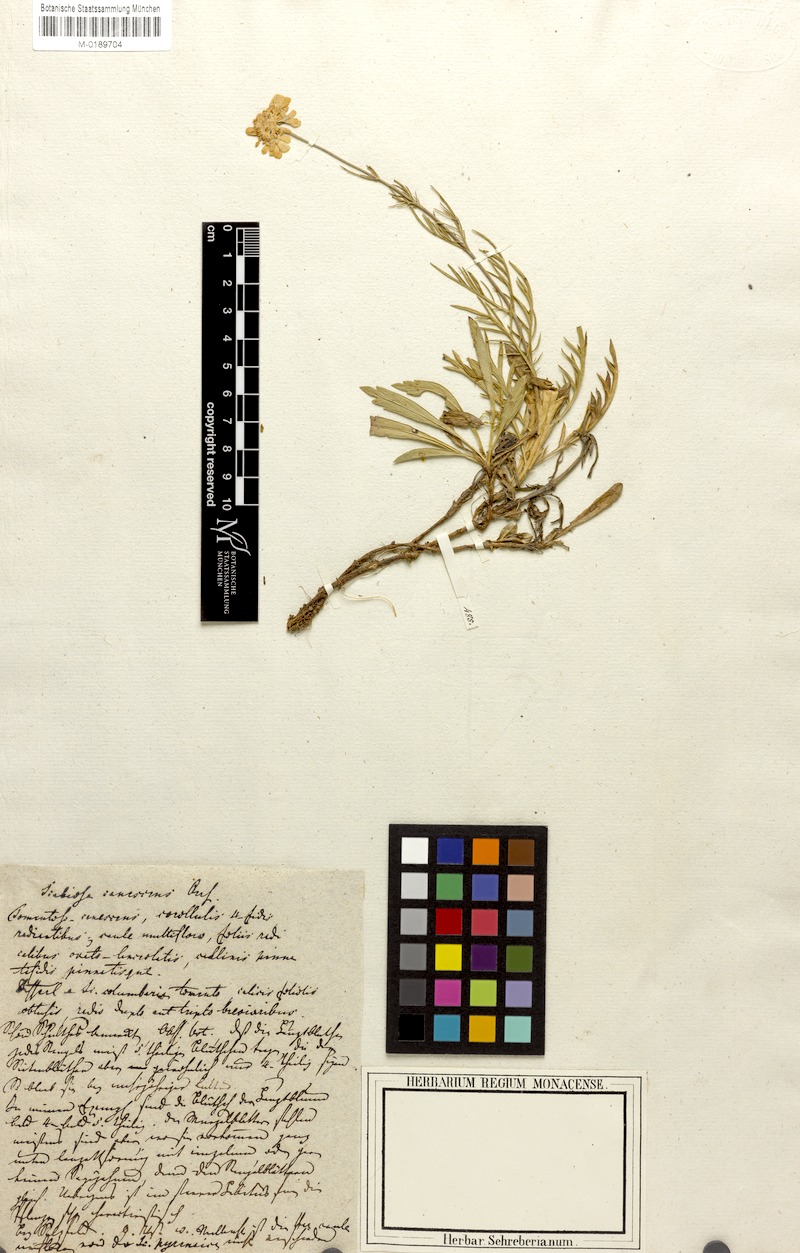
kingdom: Plantae
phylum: Tracheophyta
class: Magnoliopsida
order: Dipsacales
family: Caprifoliaceae
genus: Scabiosa
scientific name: Scabiosa canescens
